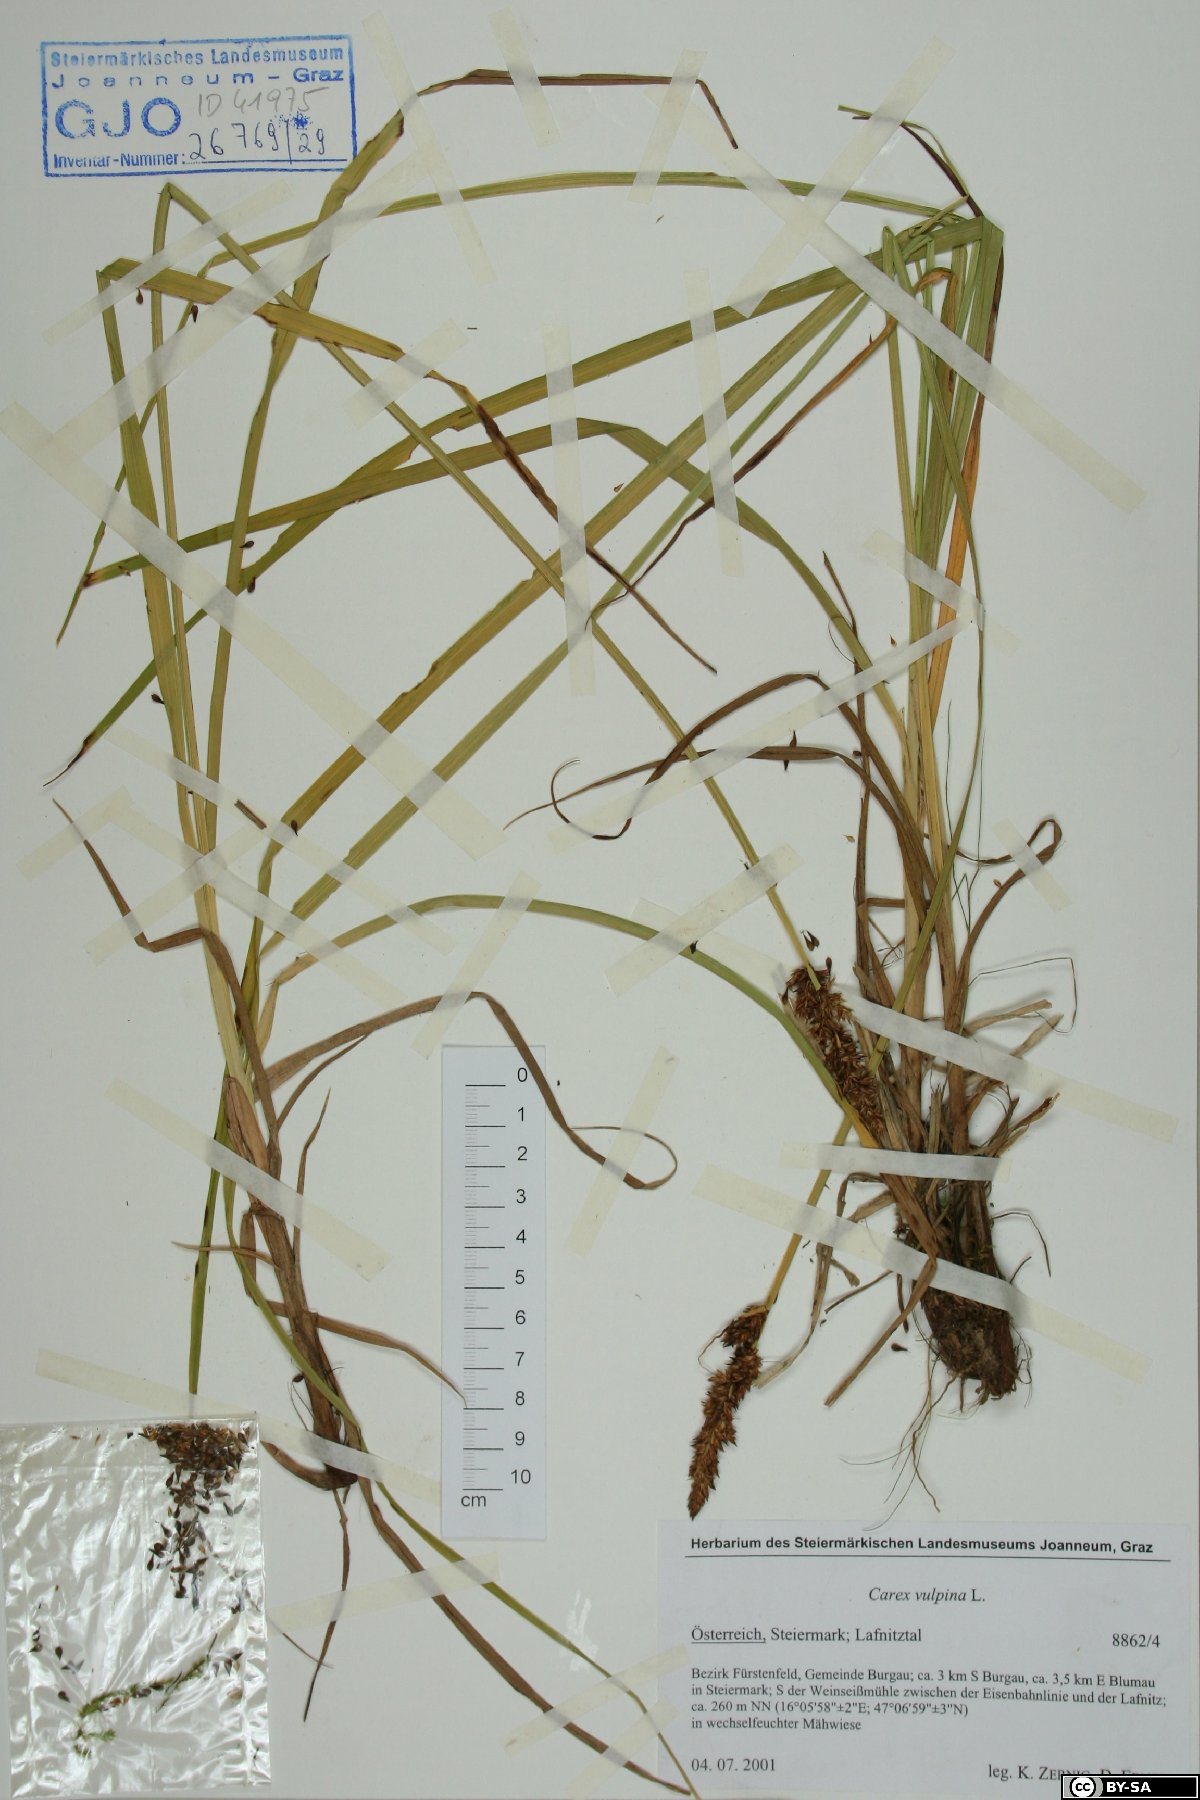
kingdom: Plantae
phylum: Tracheophyta
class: Liliopsida
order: Poales
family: Cyperaceae
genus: Carex
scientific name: Carex vulpina
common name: True fox-sedge
